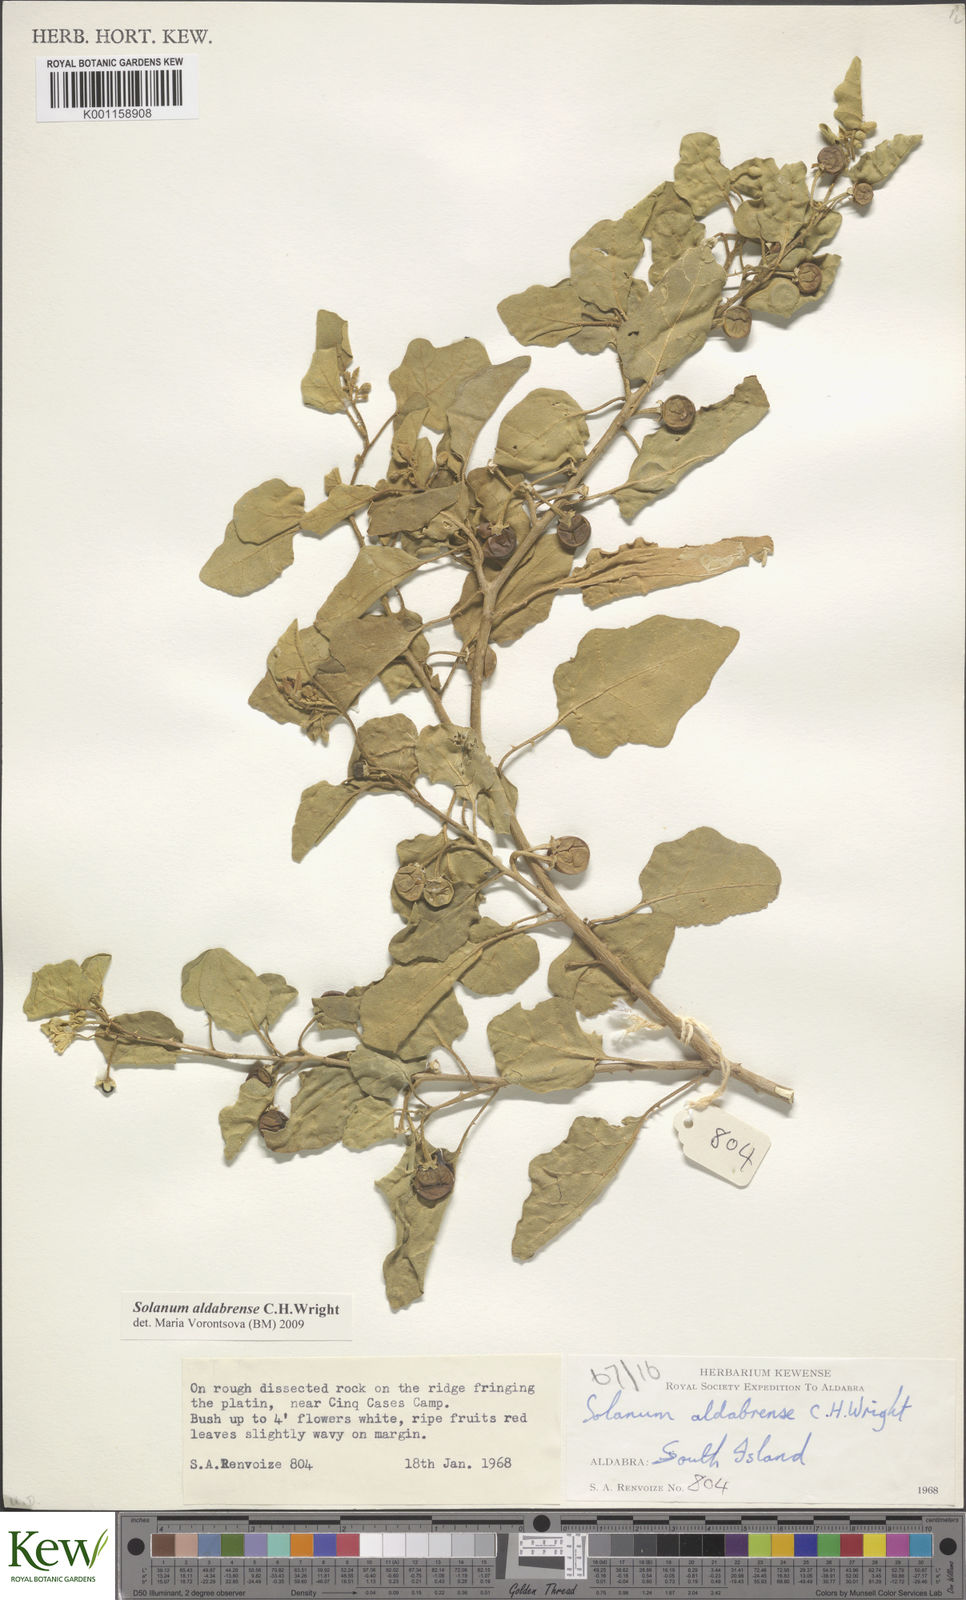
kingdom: Plantae
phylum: Tracheophyta
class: Magnoliopsida
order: Solanales
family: Solanaceae
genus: Solanum
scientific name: Solanum aldabrense
